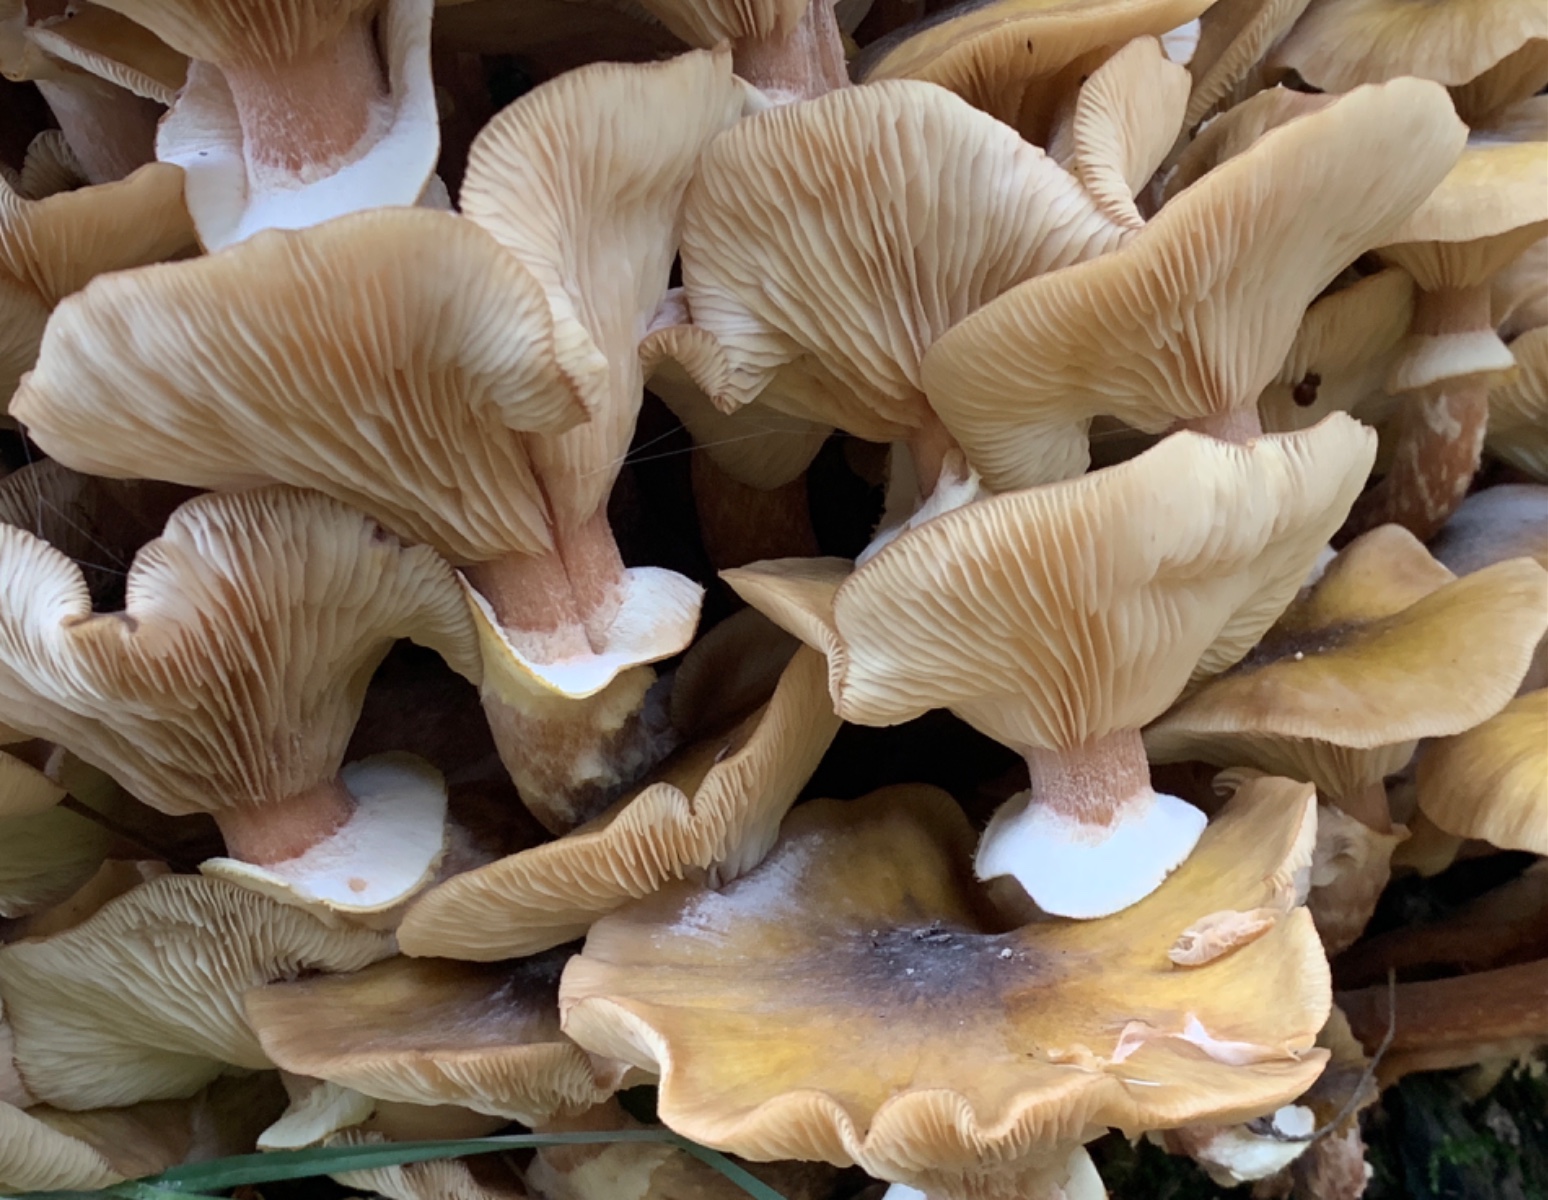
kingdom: Fungi
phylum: Basidiomycota
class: Agaricomycetes
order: Agaricales
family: Physalacriaceae
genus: Armillaria
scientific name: Armillaria mellea
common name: ægte honningsvamp
